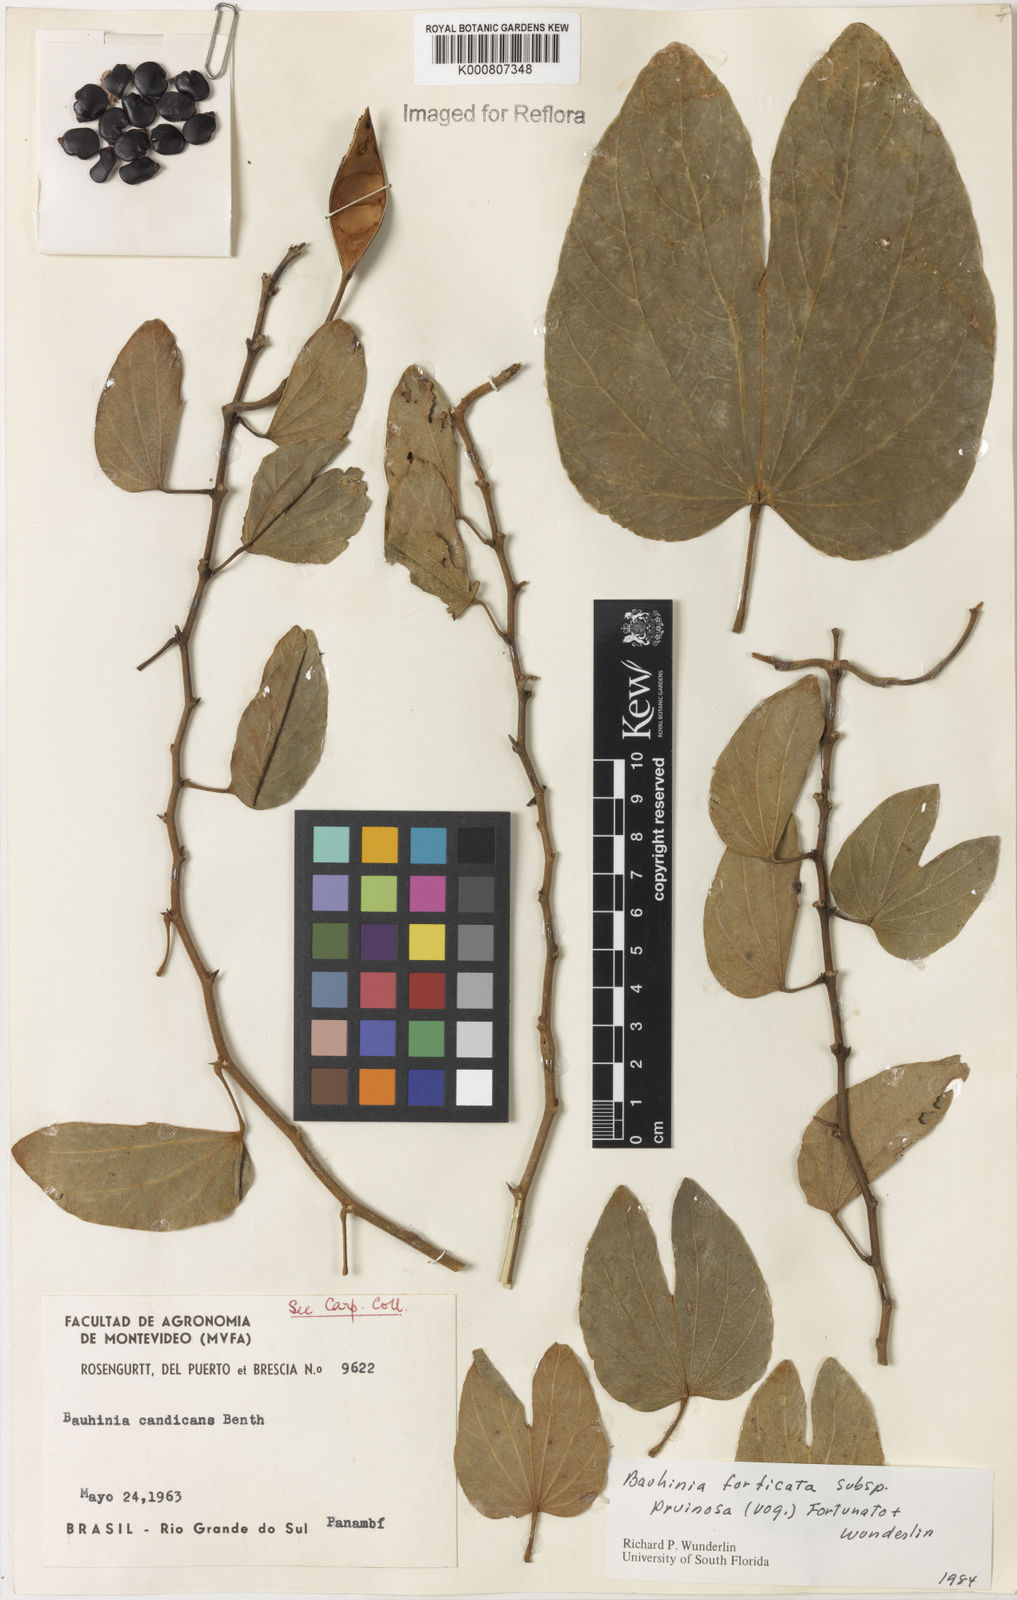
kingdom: Plantae
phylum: Tracheophyta
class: Magnoliopsida
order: Fabales
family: Fabaceae
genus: Bauhinia
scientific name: Bauhinia forficata
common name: Orchid tree
